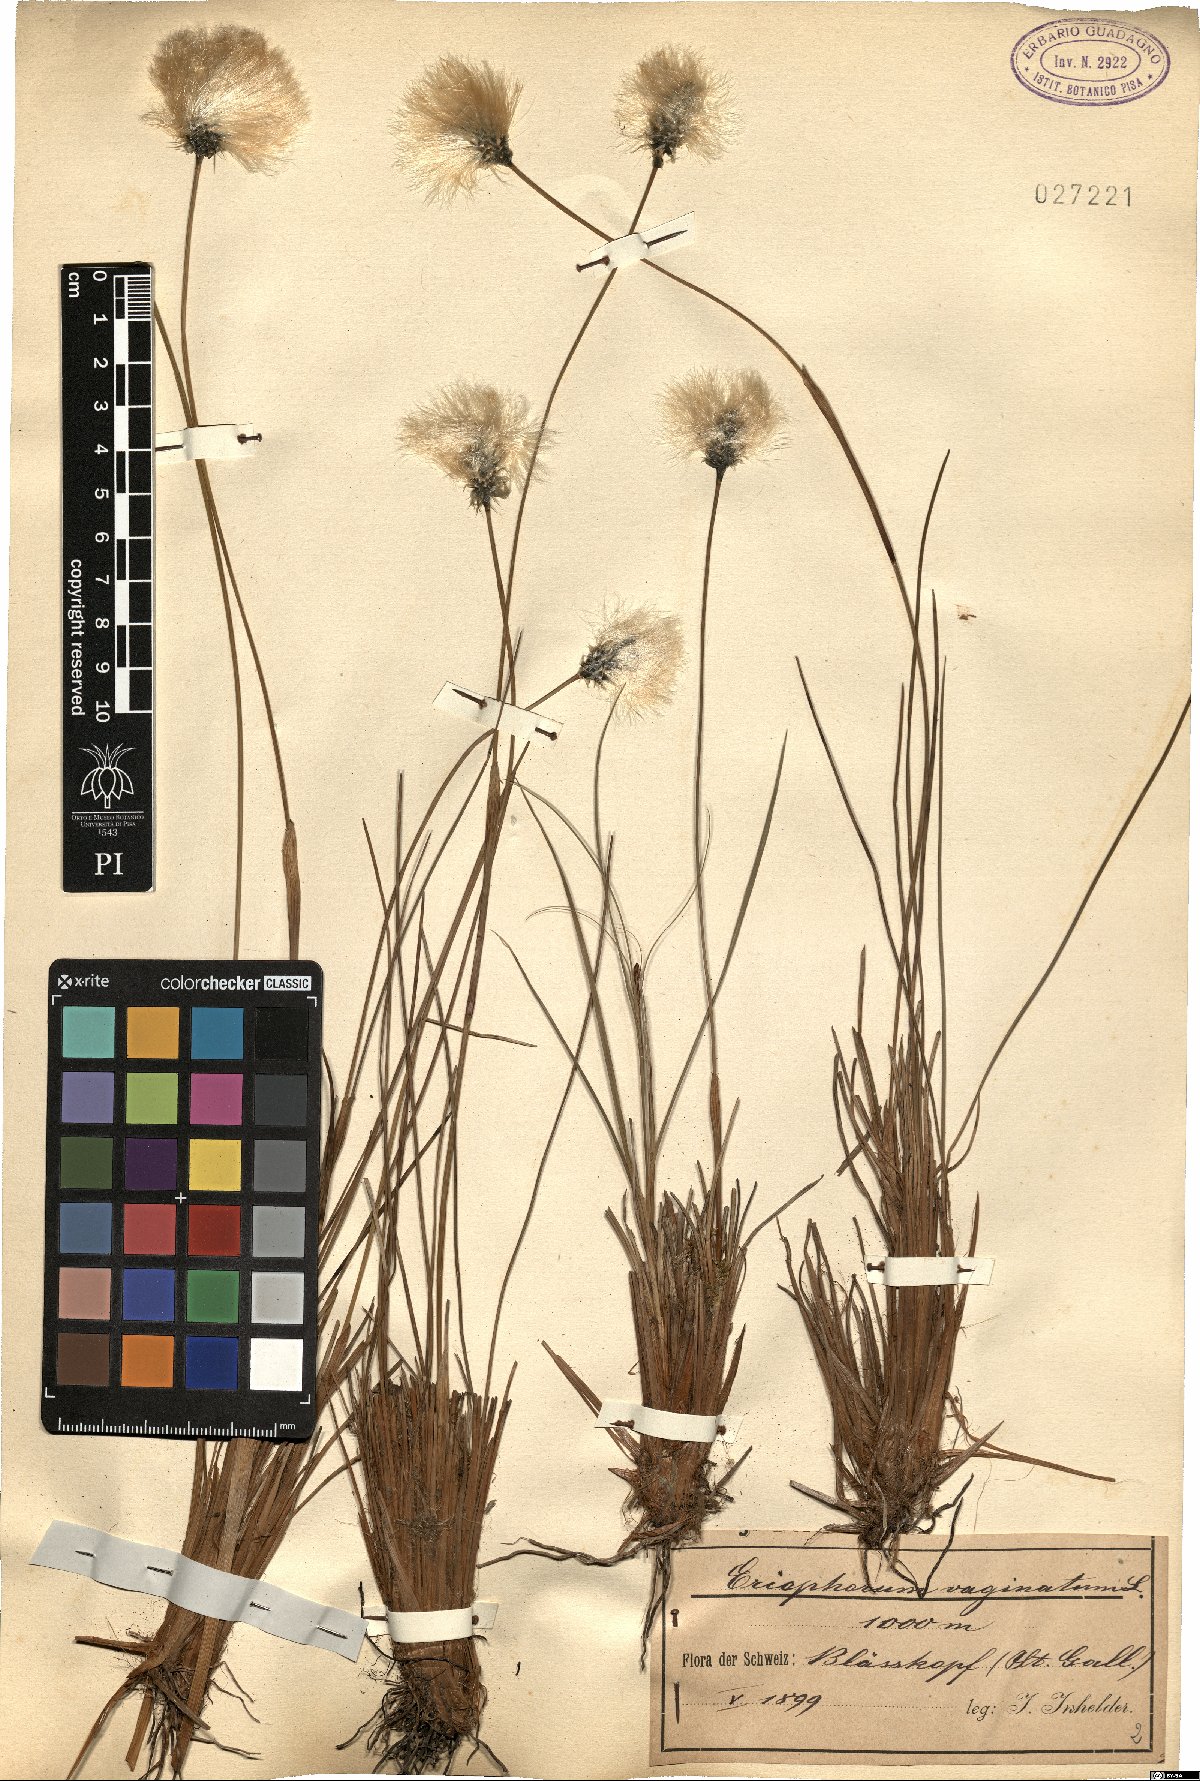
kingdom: Plantae
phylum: Tracheophyta
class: Liliopsida
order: Poales
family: Cyperaceae
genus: Eriophorum
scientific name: Eriophorum vaginatum
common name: Hare's-tail cottongrass
